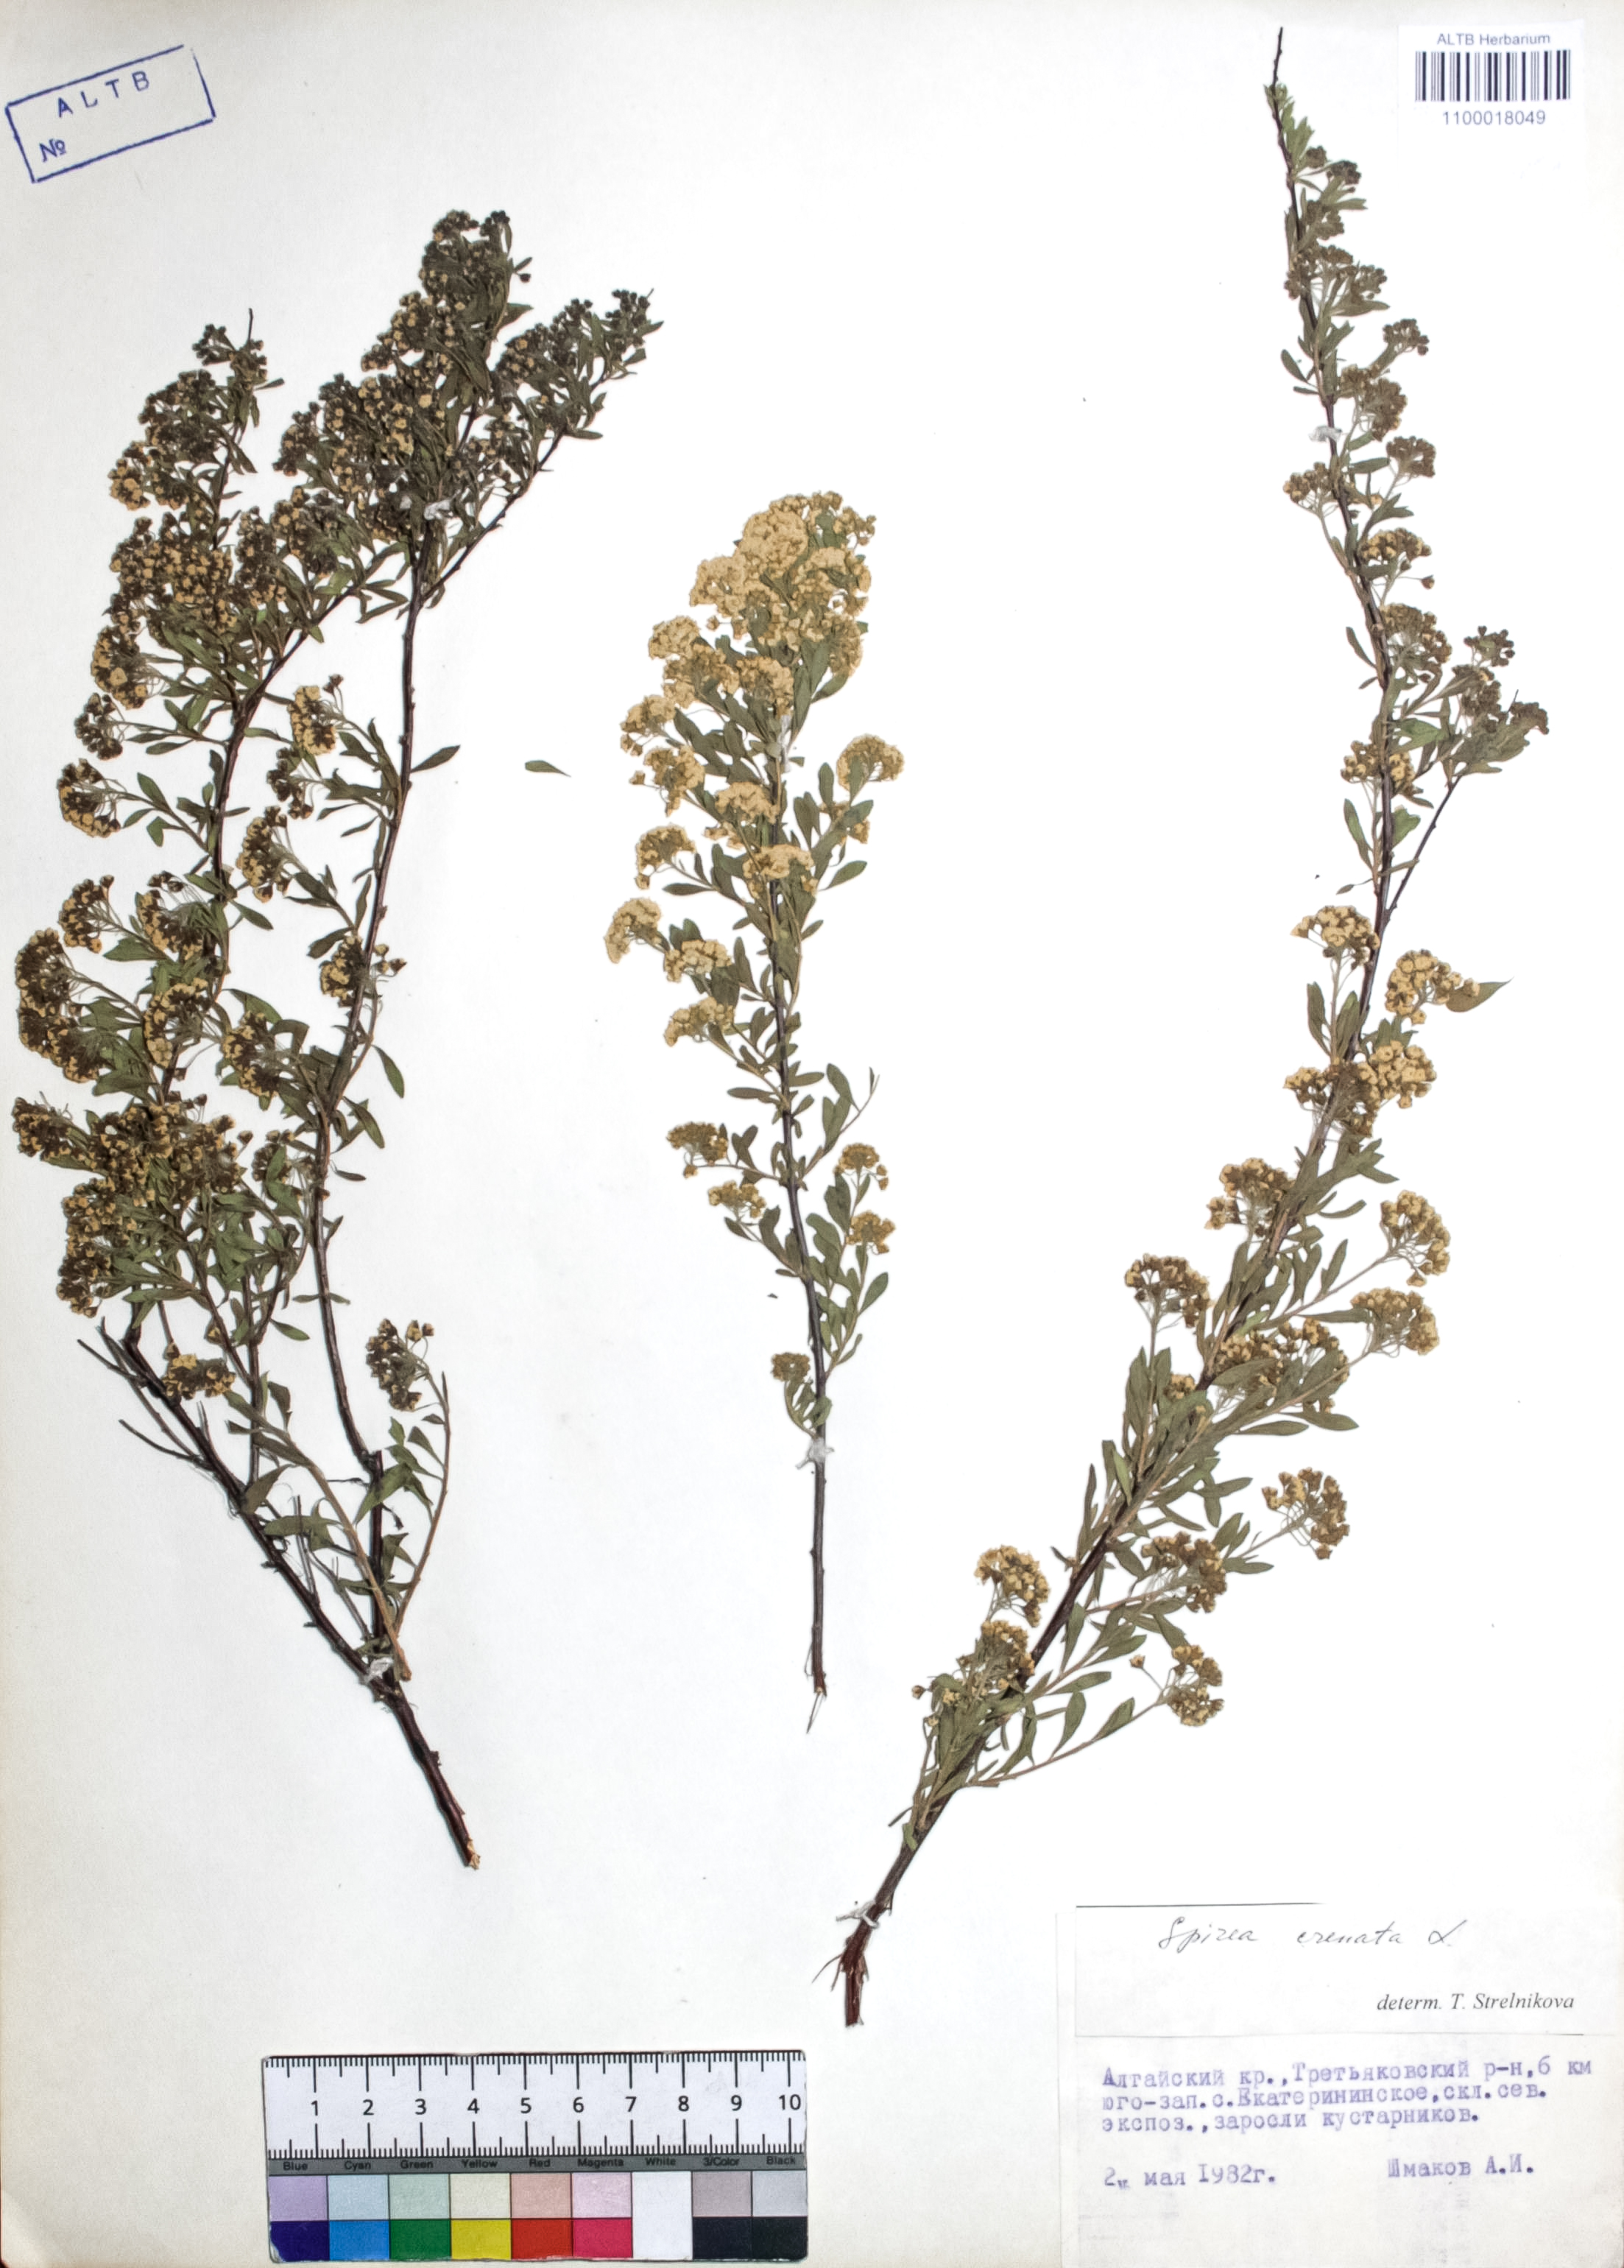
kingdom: Plantae
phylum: Tracheophyta
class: Magnoliopsida
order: Rosales
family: Rosaceae
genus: Spiraea
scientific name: Spiraea crenata
